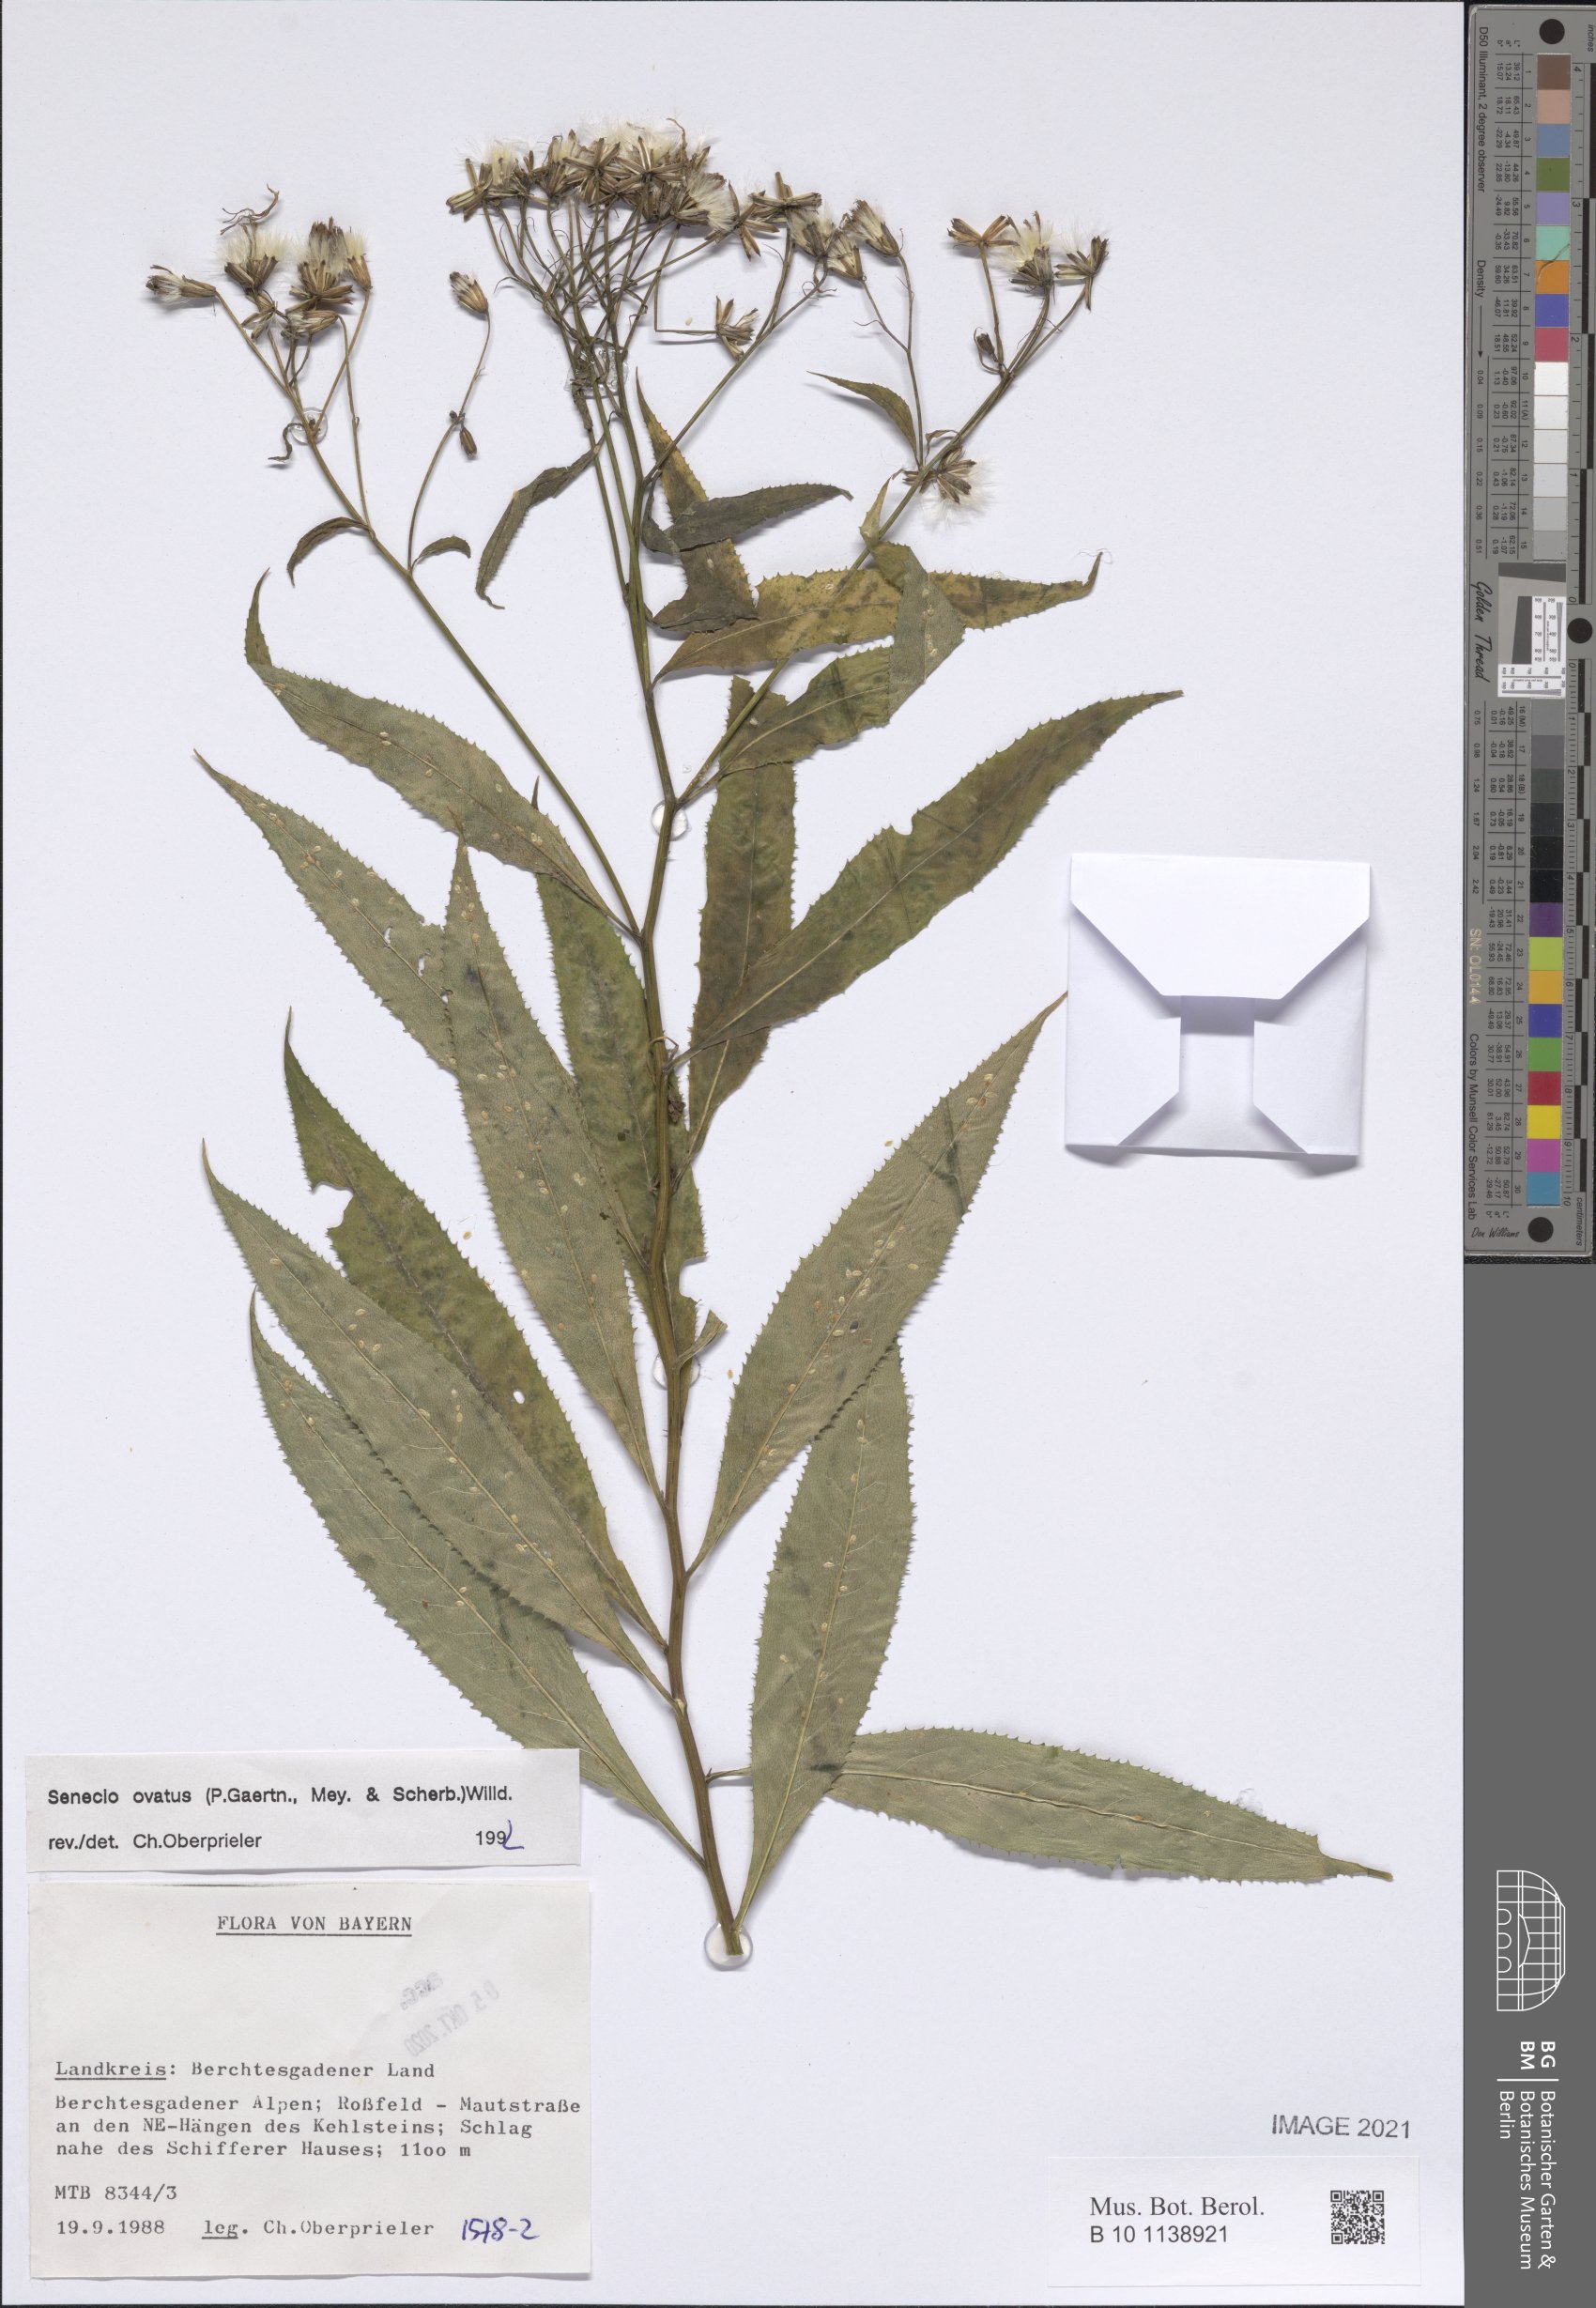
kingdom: Plantae
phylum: Tracheophyta
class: Magnoliopsida
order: Asterales
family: Asteraceae
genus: Senecio
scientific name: Senecio ovatus
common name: Wood ragwort
